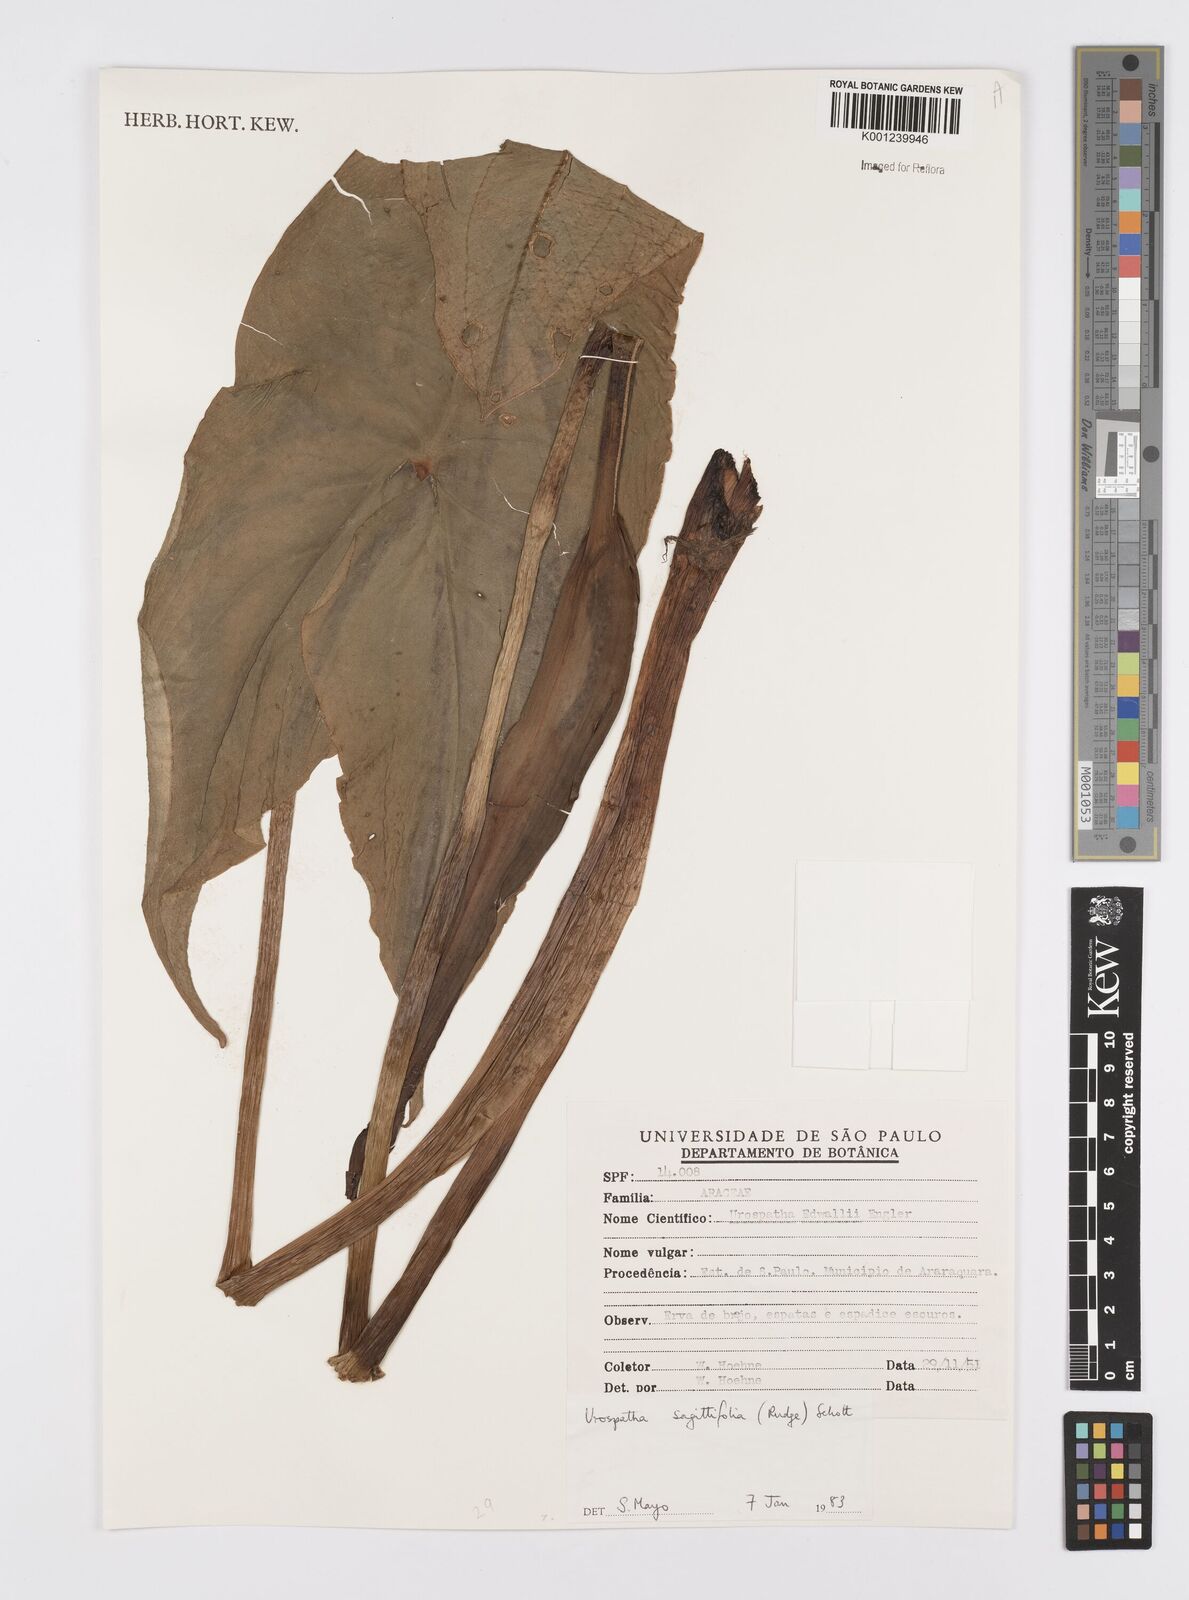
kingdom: Plantae
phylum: Tracheophyta
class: Liliopsida
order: Alismatales
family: Araceae
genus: Urospatha
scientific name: Urospatha sagittifolia
